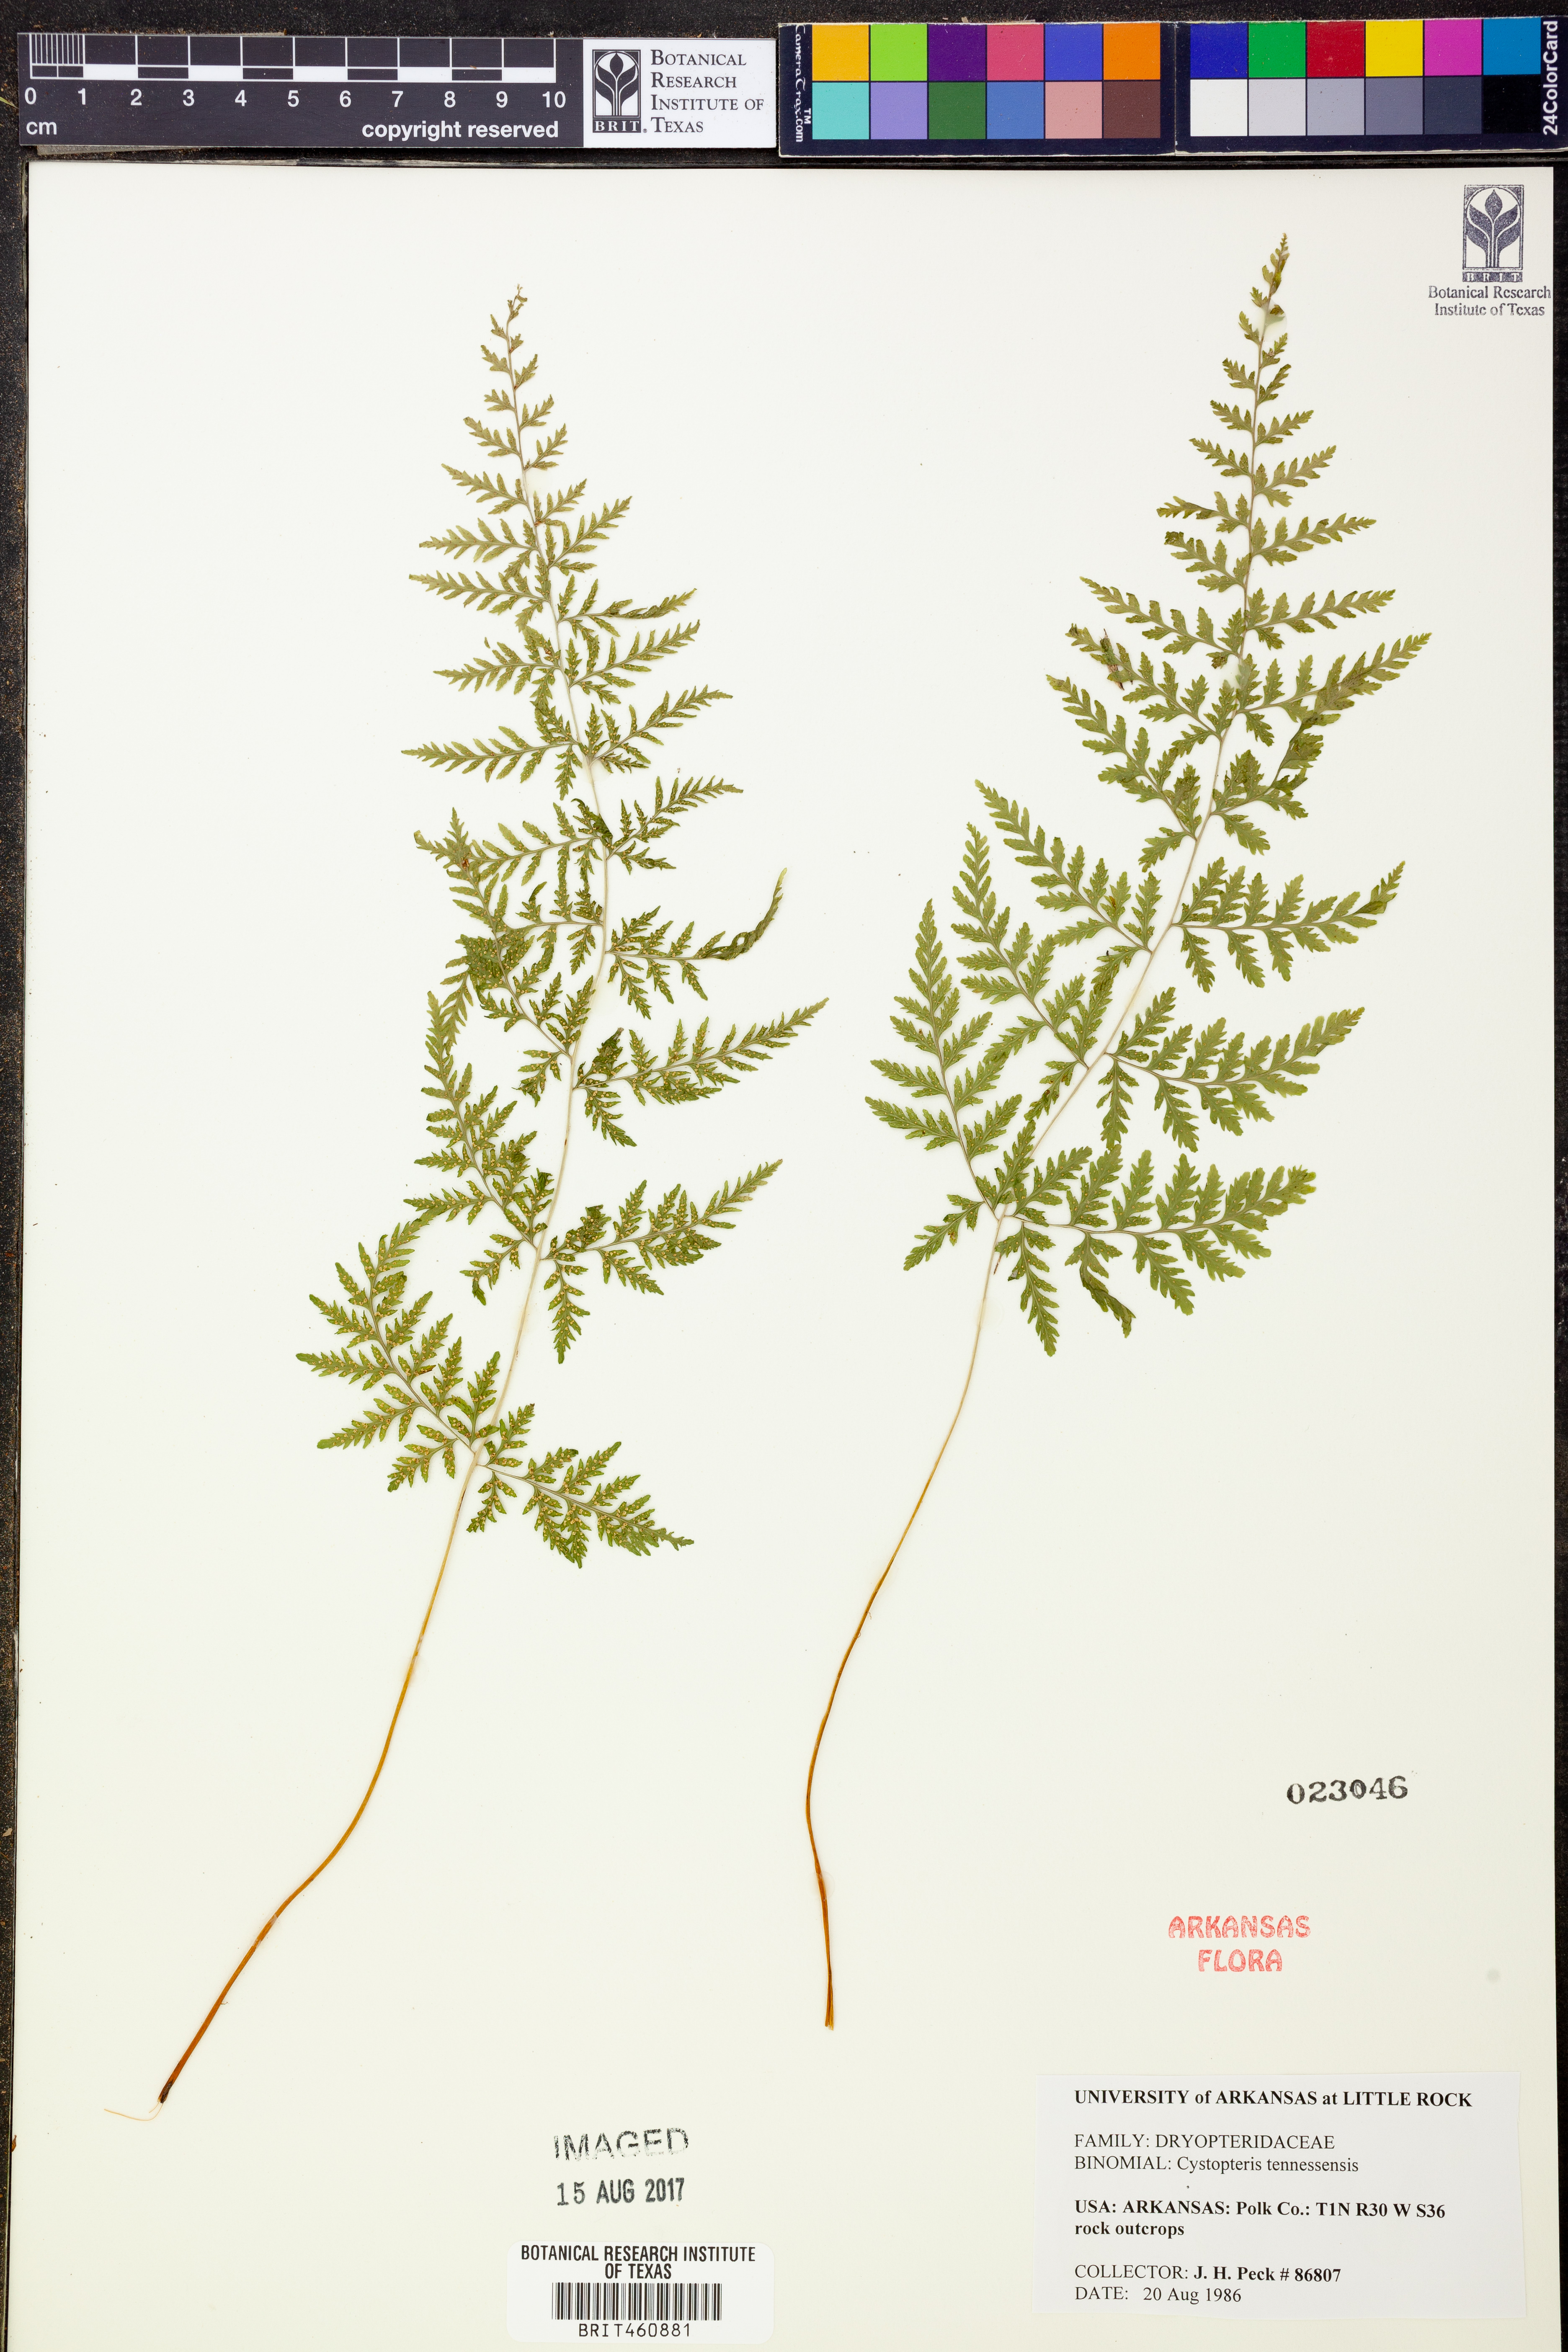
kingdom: Plantae
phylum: Tracheophyta
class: Polypodiopsida
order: Polypodiales
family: Cystopteridaceae
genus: Cystopteris
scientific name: Cystopteris tennesseensis
